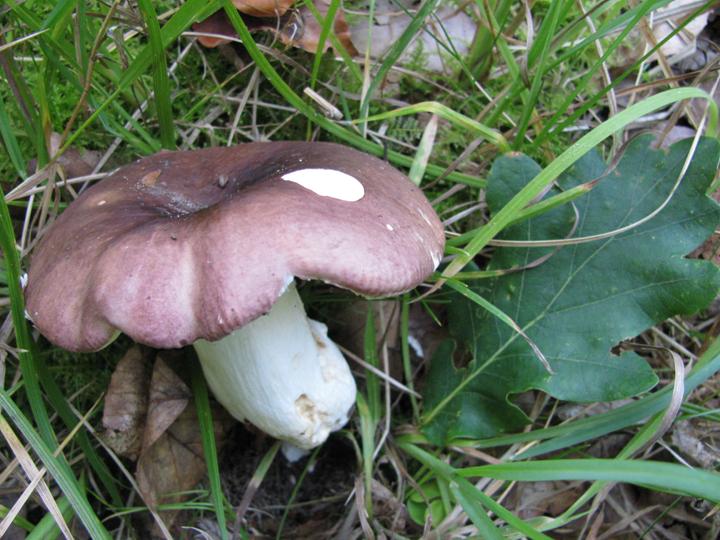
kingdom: Fungi
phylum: Basidiomycota
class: Agaricomycetes
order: Russulales
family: Russulaceae
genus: Russula
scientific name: Russula graveolens
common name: bugtet skørhat
